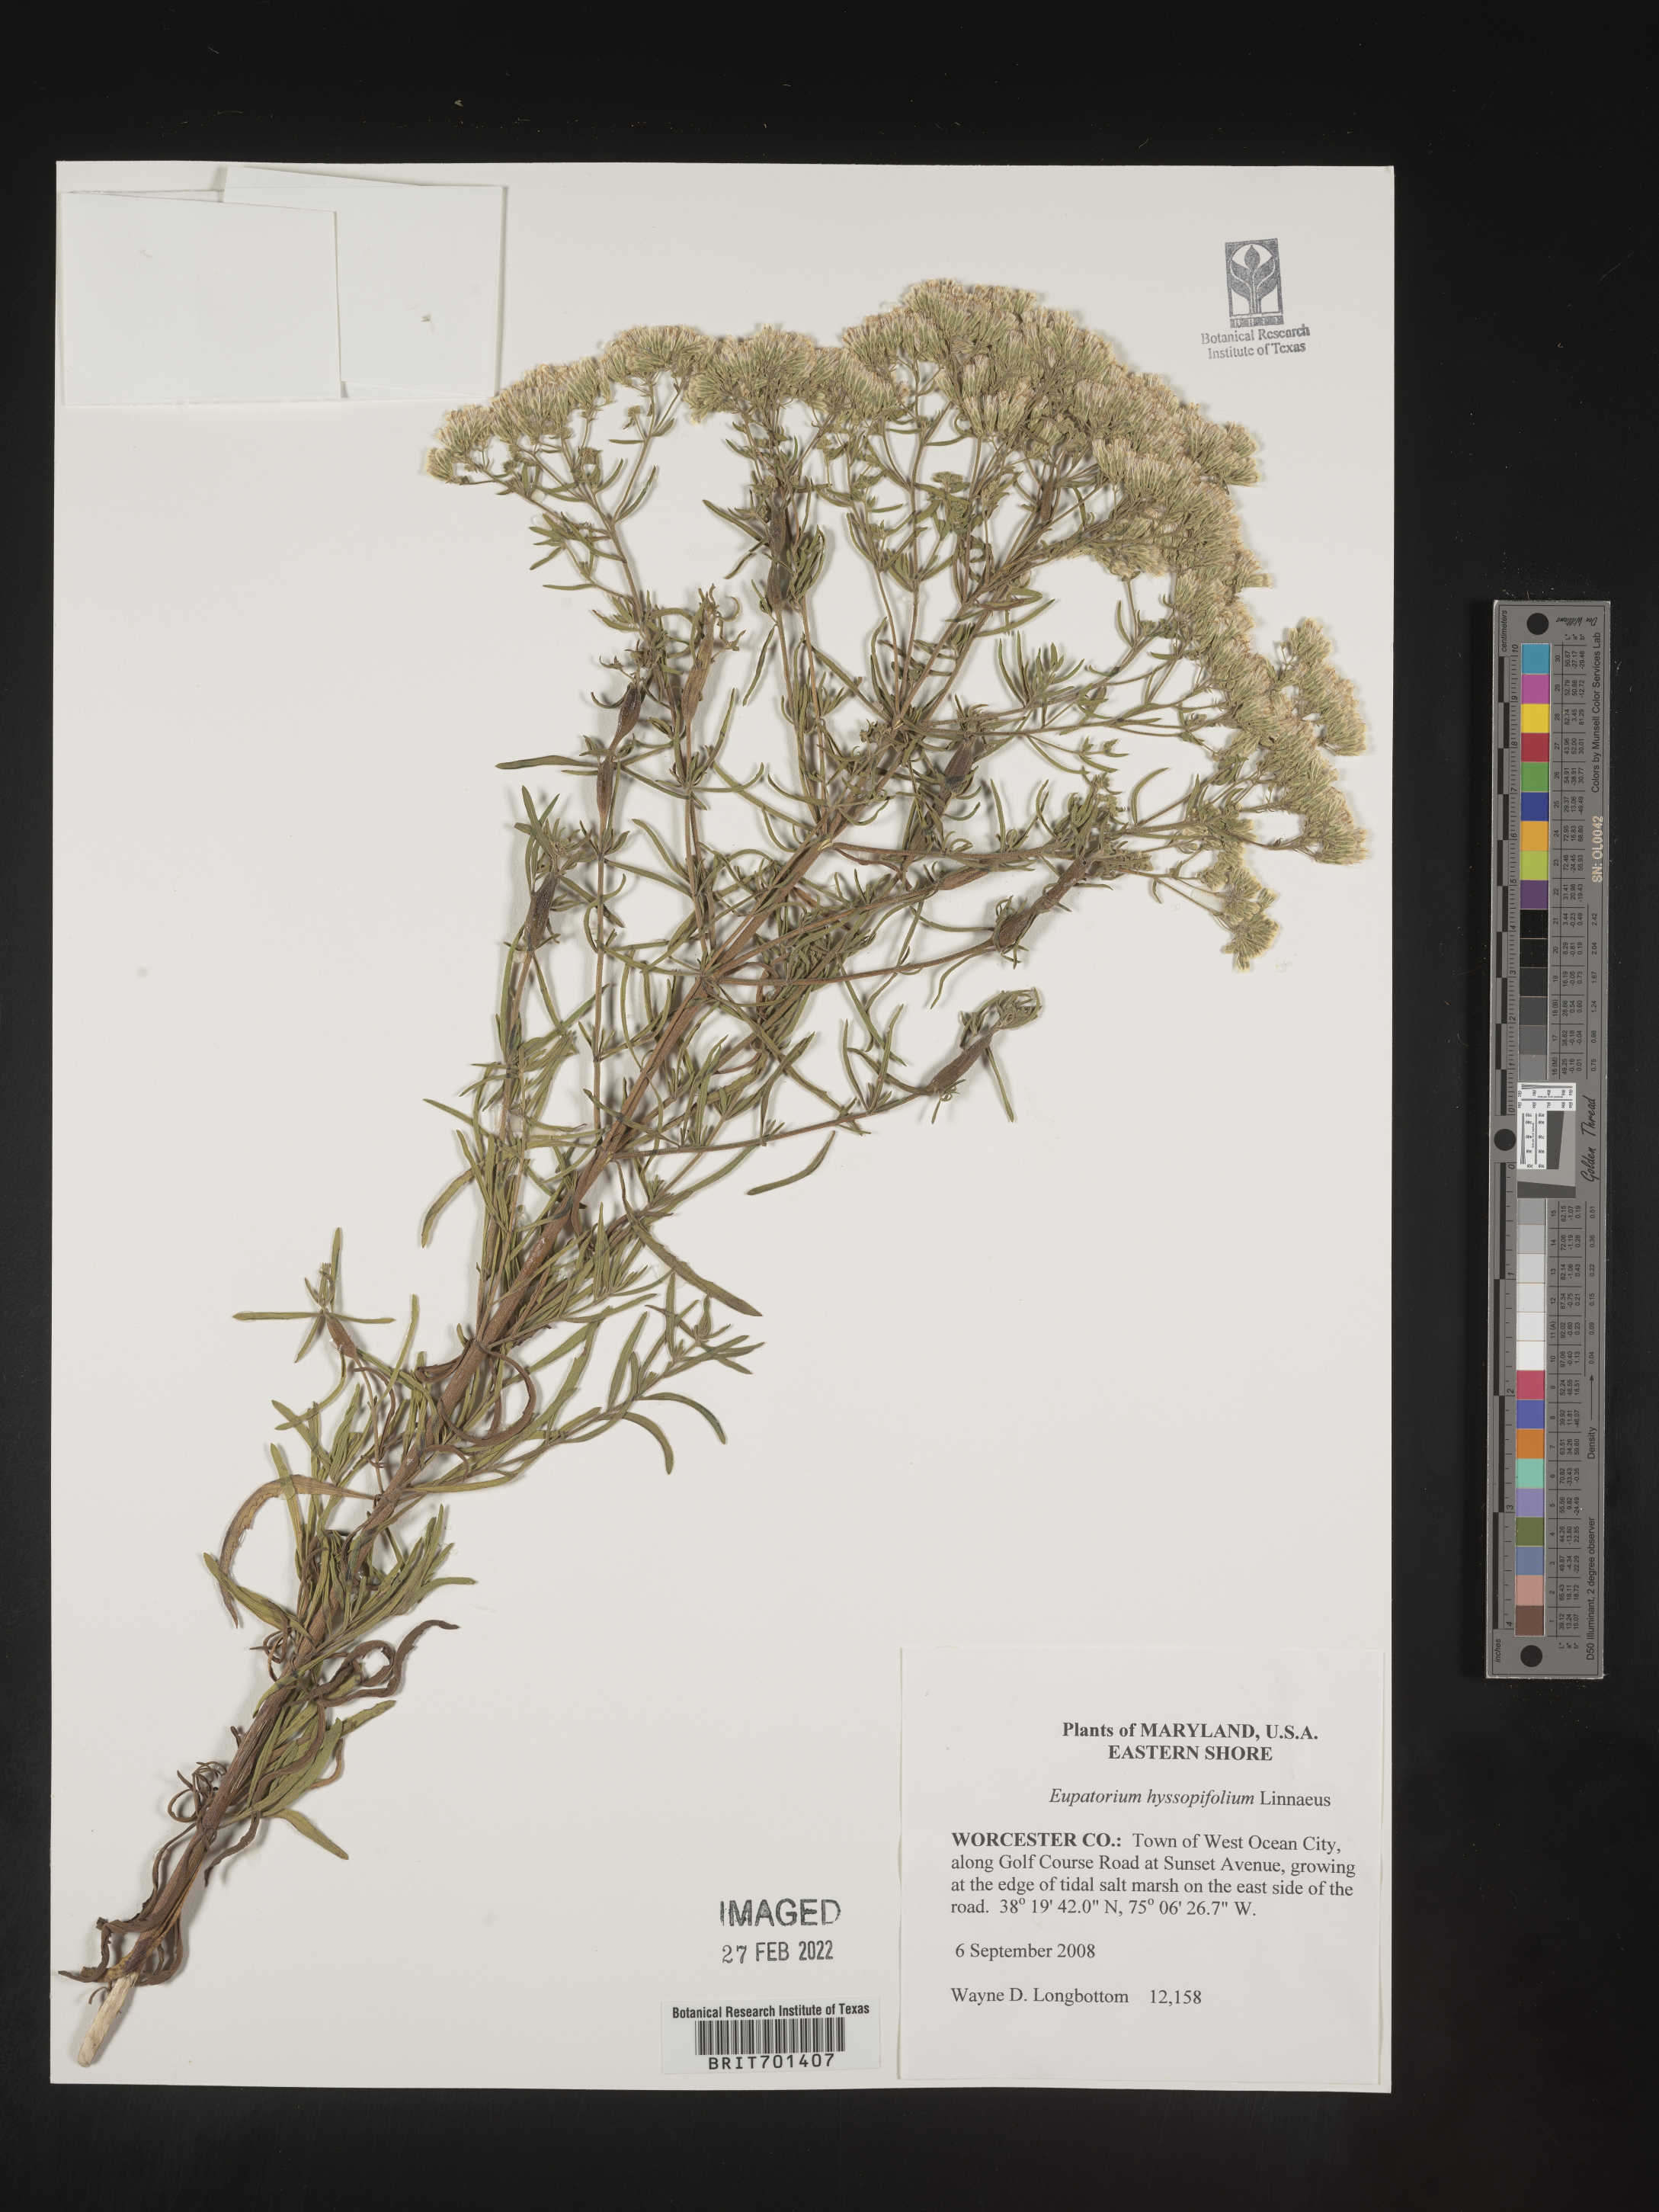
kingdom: Plantae
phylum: Tracheophyta
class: Magnoliopsida
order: Asterales
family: Asteraceae
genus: Eupatorium
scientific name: Eupatorium hyssopifolium
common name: Hyssop-leaf thoroughwort
